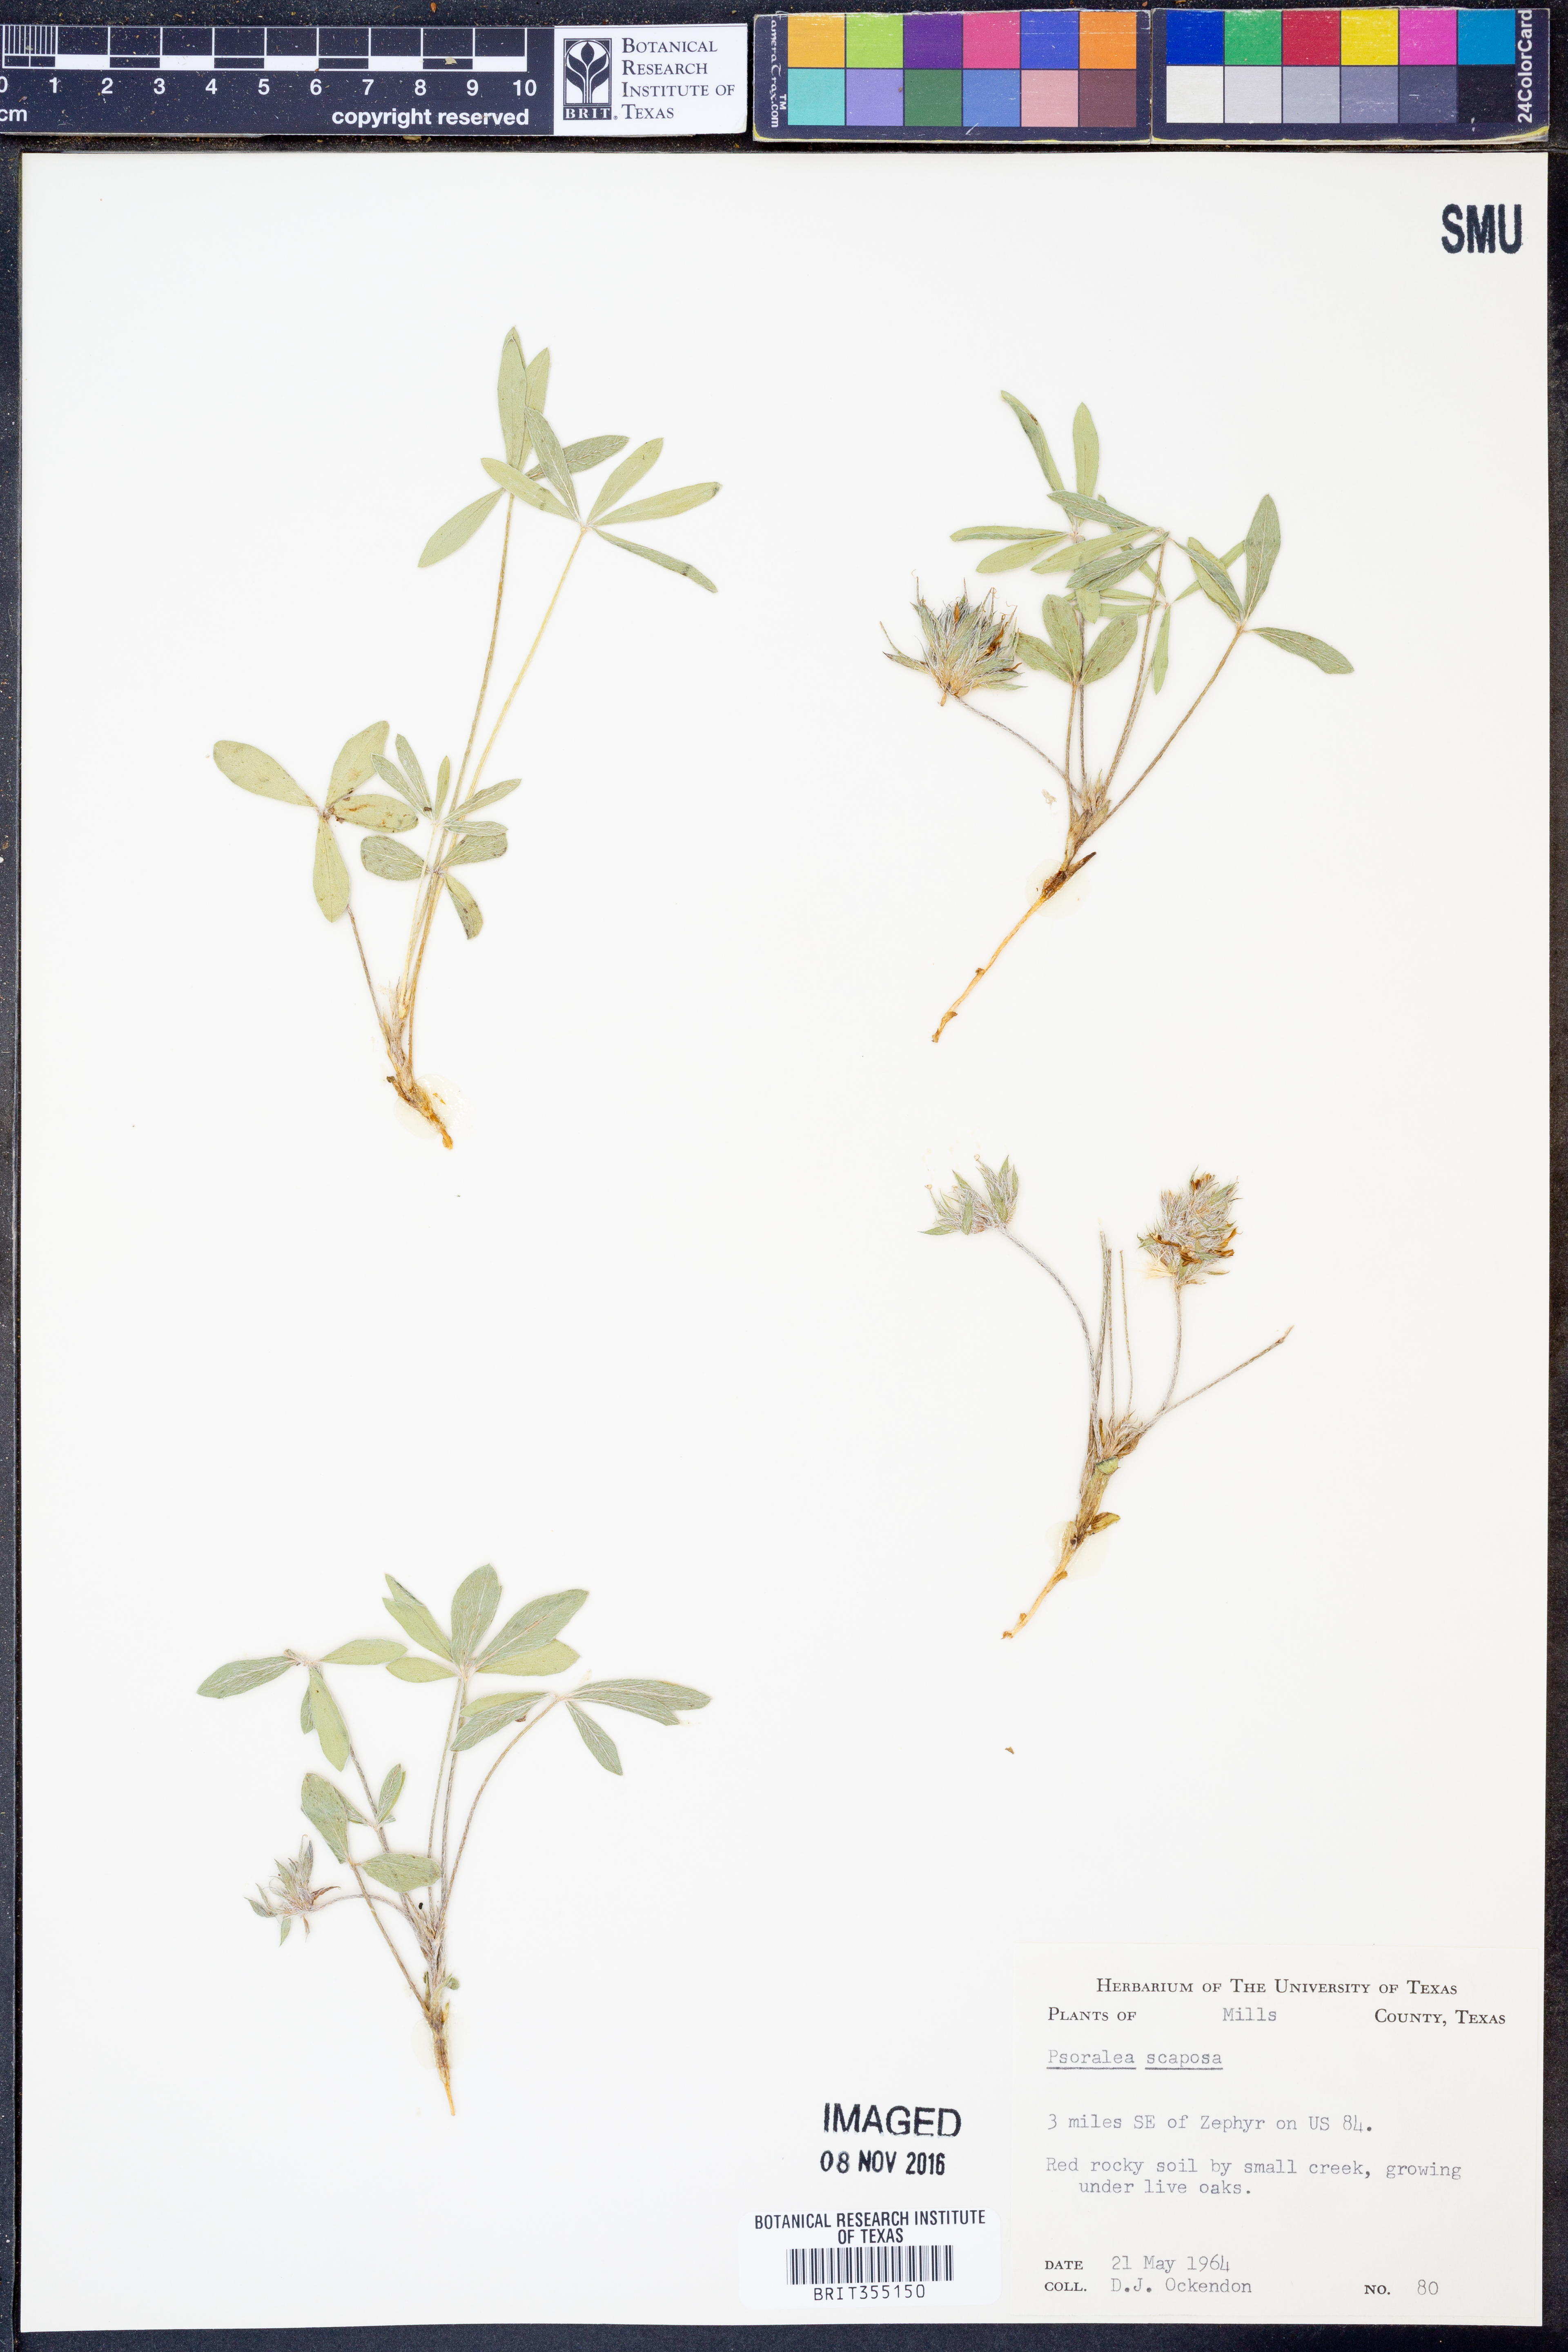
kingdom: Plantae
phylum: Tracheophyta
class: Magnoliopsida
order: Fabales
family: Fabaceae
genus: Pediomelum
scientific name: Pediomelum hypogaeum
